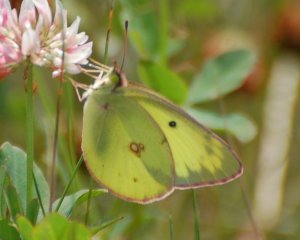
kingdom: Animalia
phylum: Arthropoda
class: Insecta
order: Lepidoptera
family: Pieridae
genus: Colias
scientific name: Colias philodice
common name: Clouded Sulphur
